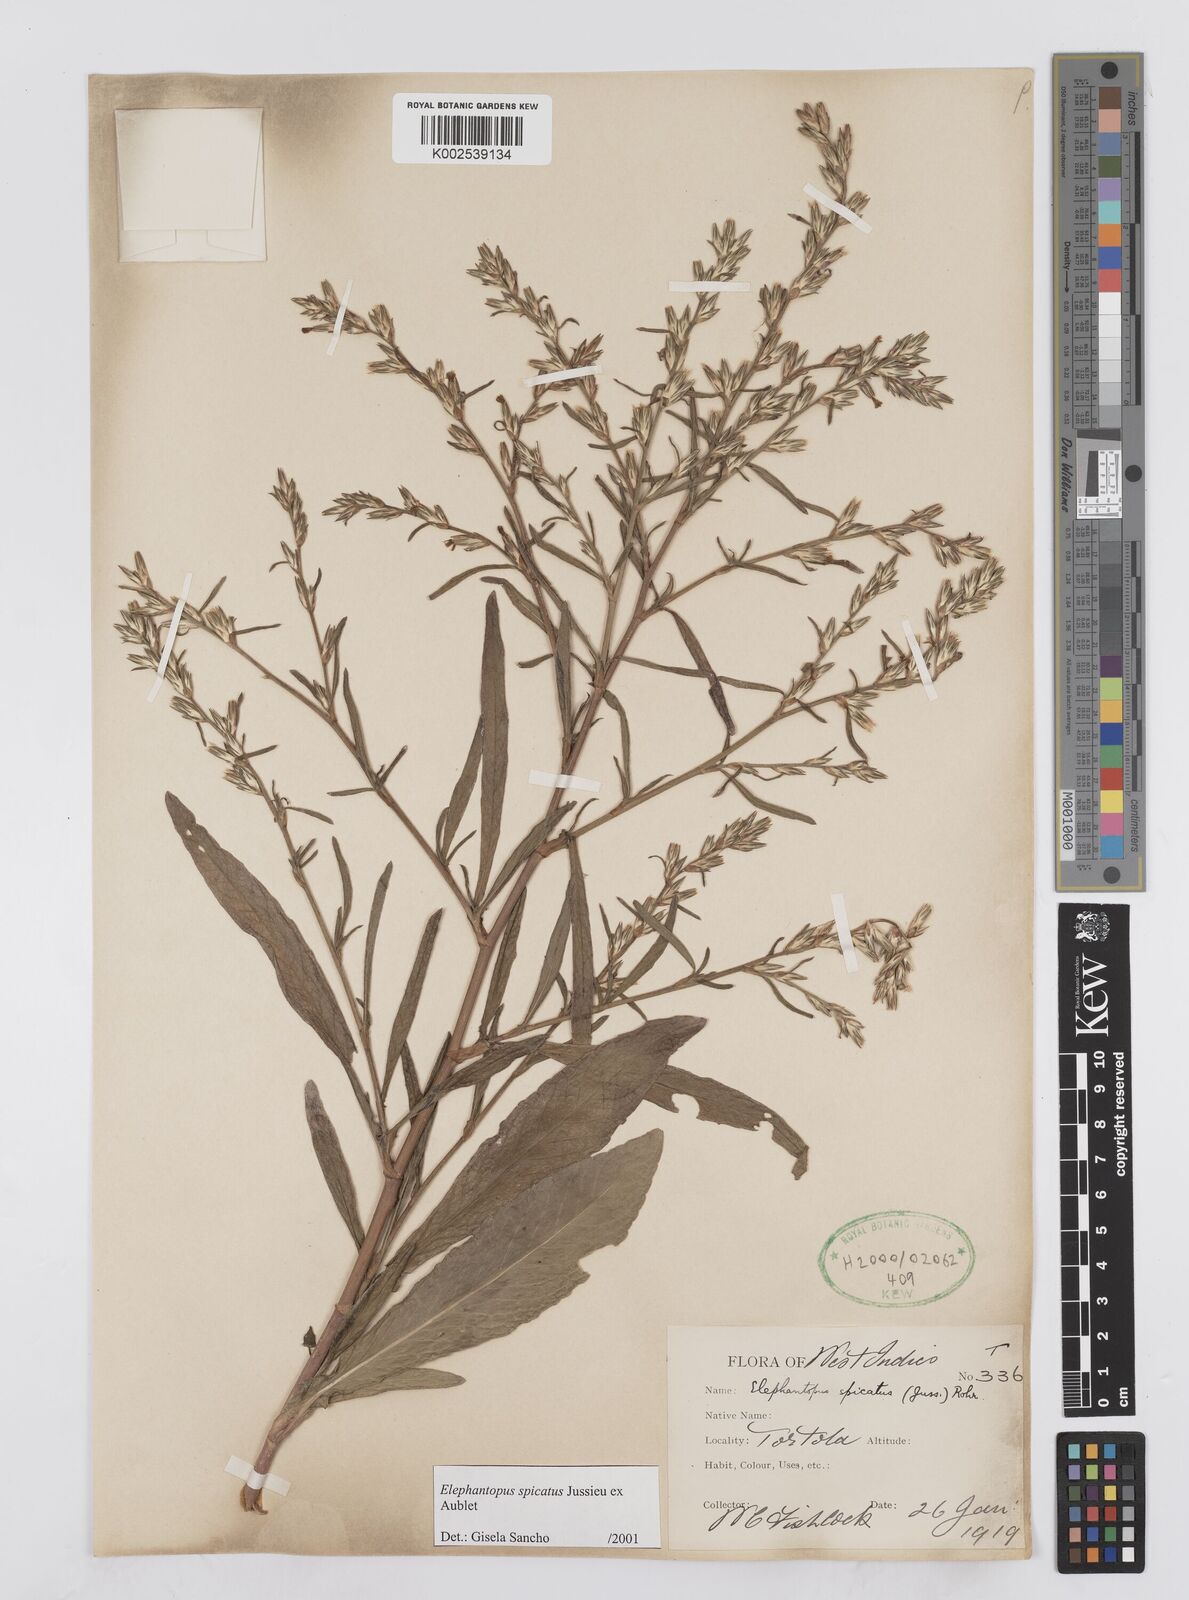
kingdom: Plantae
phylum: Tracheophyta
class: Magnoliopsida
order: Asterales
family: Asteraceae
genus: Pseudelephantopus
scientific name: Pseudelephantopus spicatus
